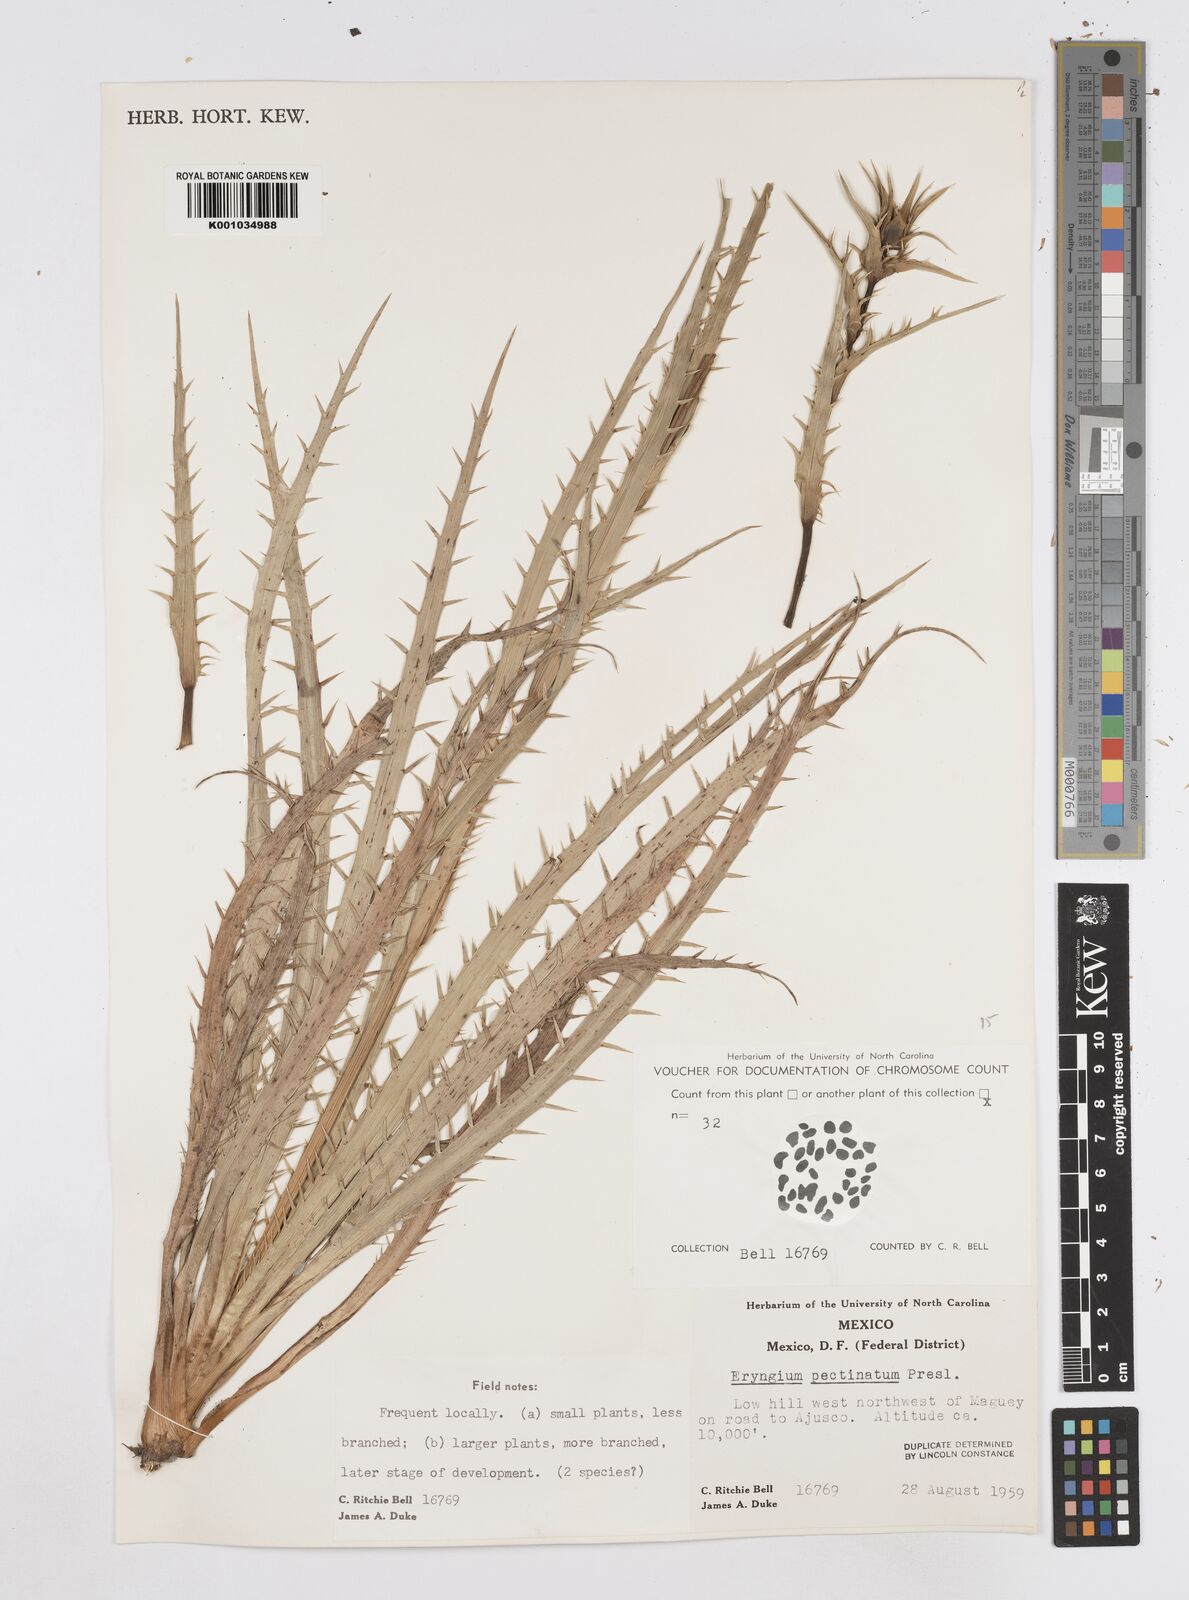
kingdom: Plantae
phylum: Tracheophyta
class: Magnoliopsida
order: Apiales
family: Apiaceae
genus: Eryngium
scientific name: Eryngium pectinatum
